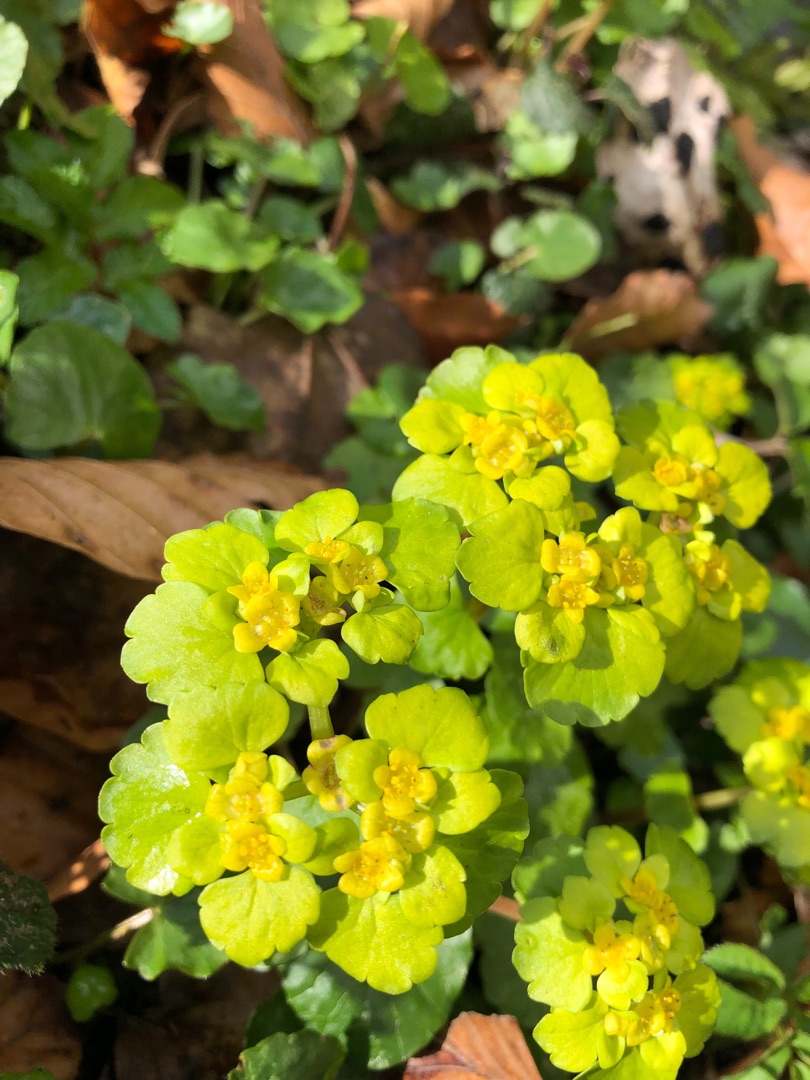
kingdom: Plantae
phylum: Tracheophyta
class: Magnoliopsida
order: Saxifragales
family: Saxifragaceae
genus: Chrysosplenium
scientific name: Chrysosplenium alternifolium
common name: Almindelig milturt
